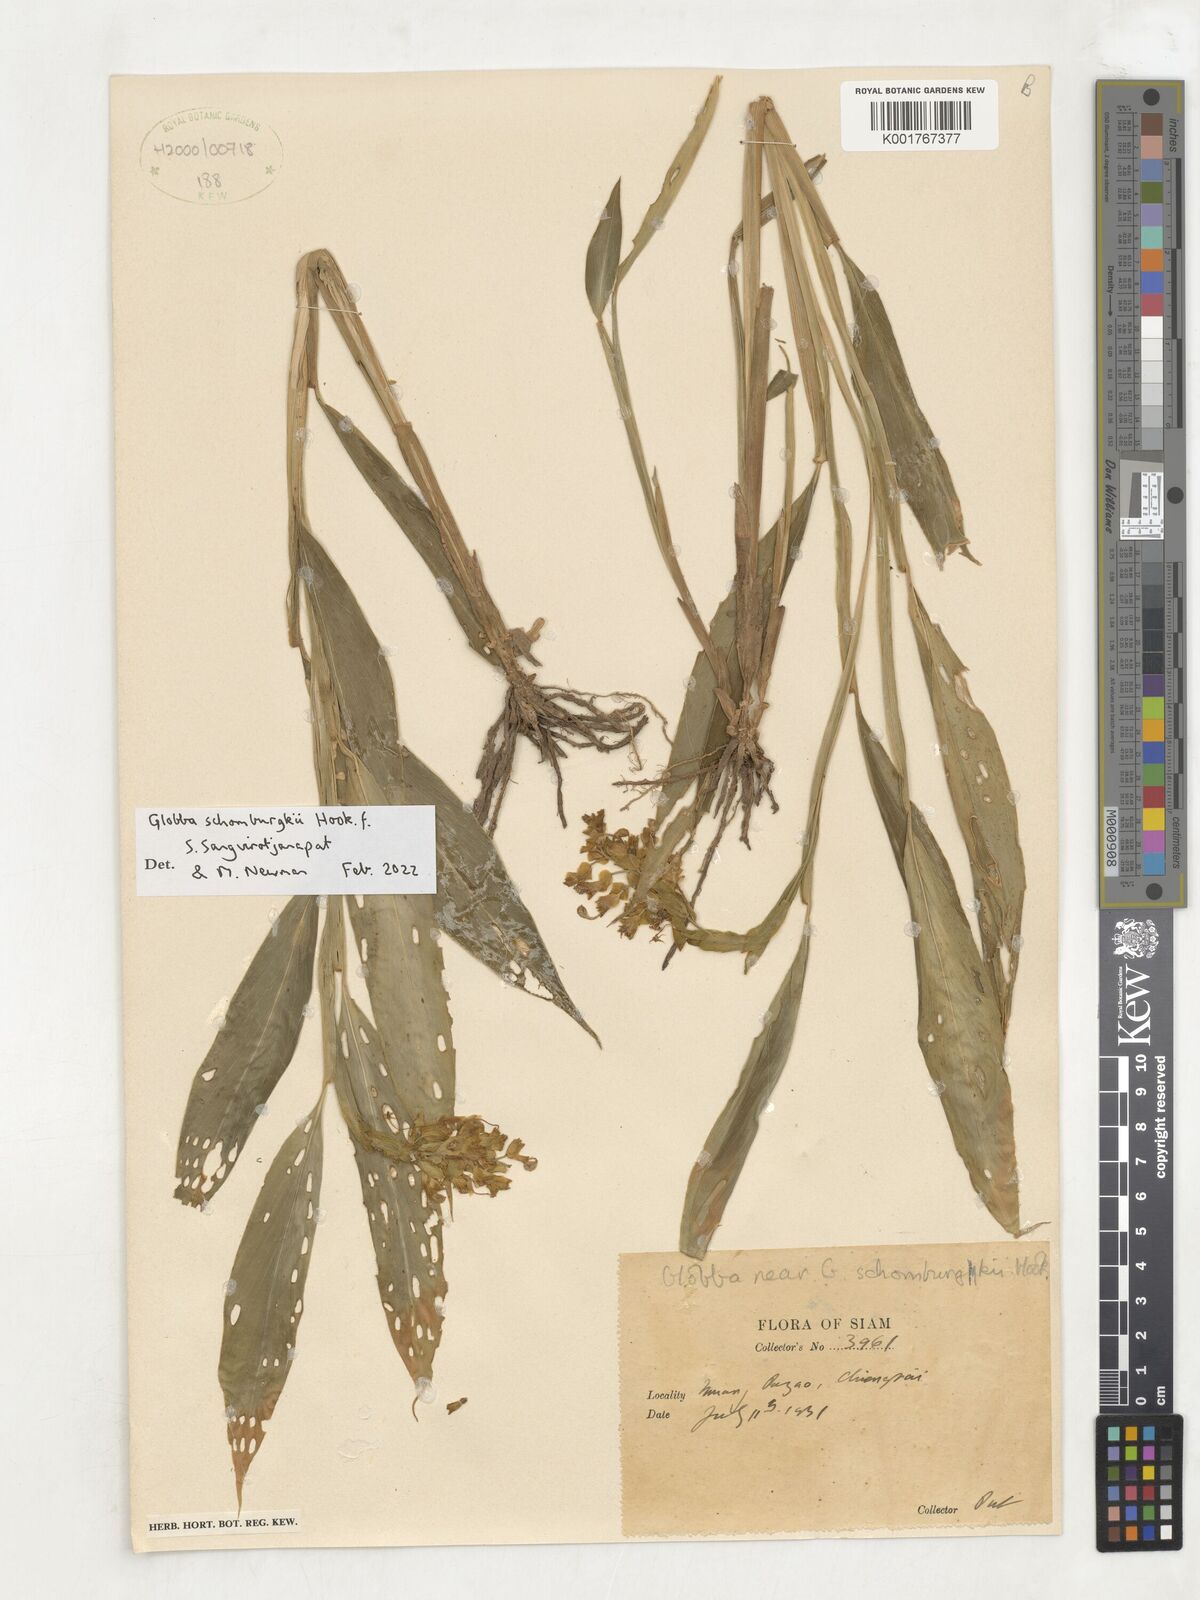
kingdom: Plantae
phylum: Tracheophyta
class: Liliopsida
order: Zingiberales
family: Zingiberaceae
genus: Globba
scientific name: Globba schomburgkii
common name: Dancing girl ginger
